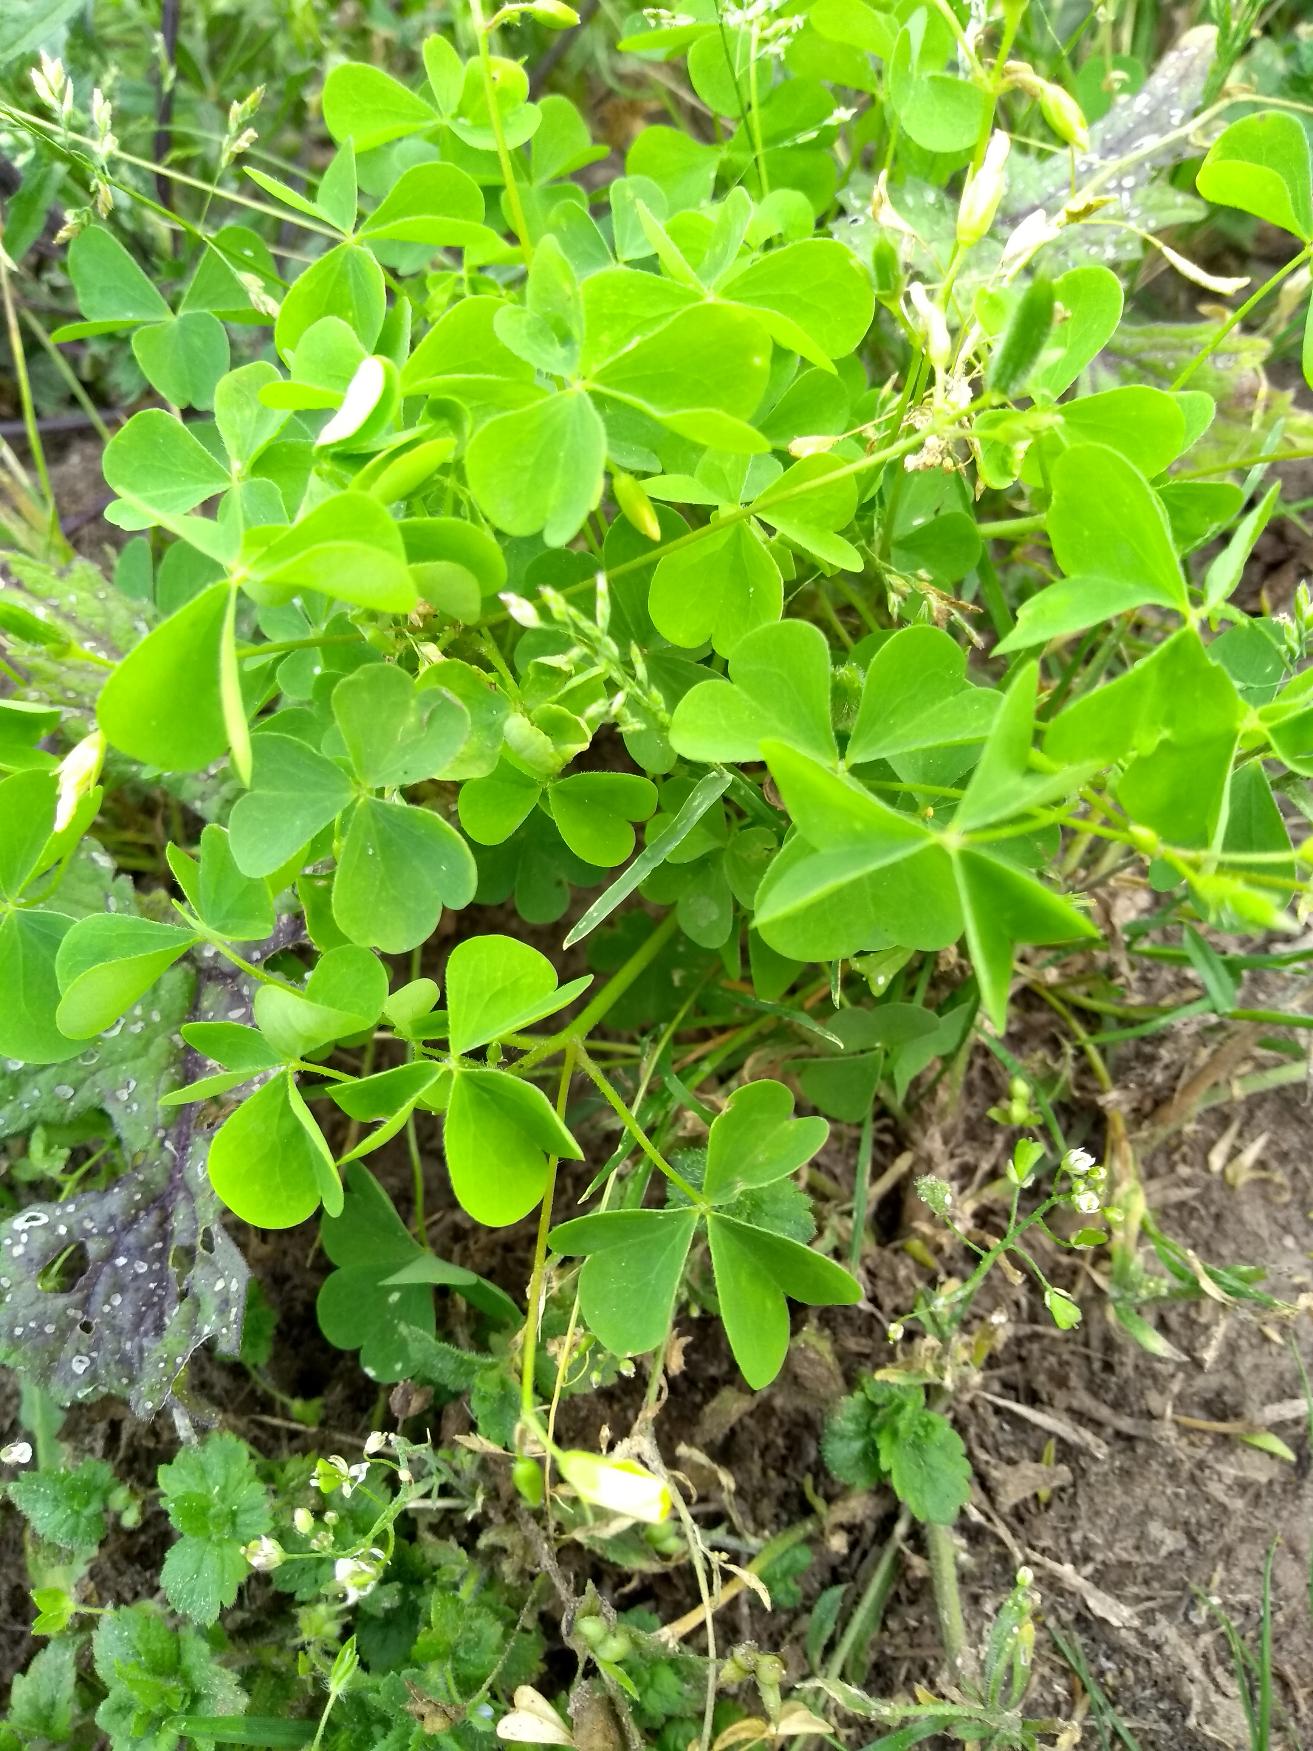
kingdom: Plantae
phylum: Tracheophyta
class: Magnoliopsida
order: Oxalidales
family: Oxalidaceae
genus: Oxalis
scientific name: Oxalis stricta
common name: Rank surkløver
